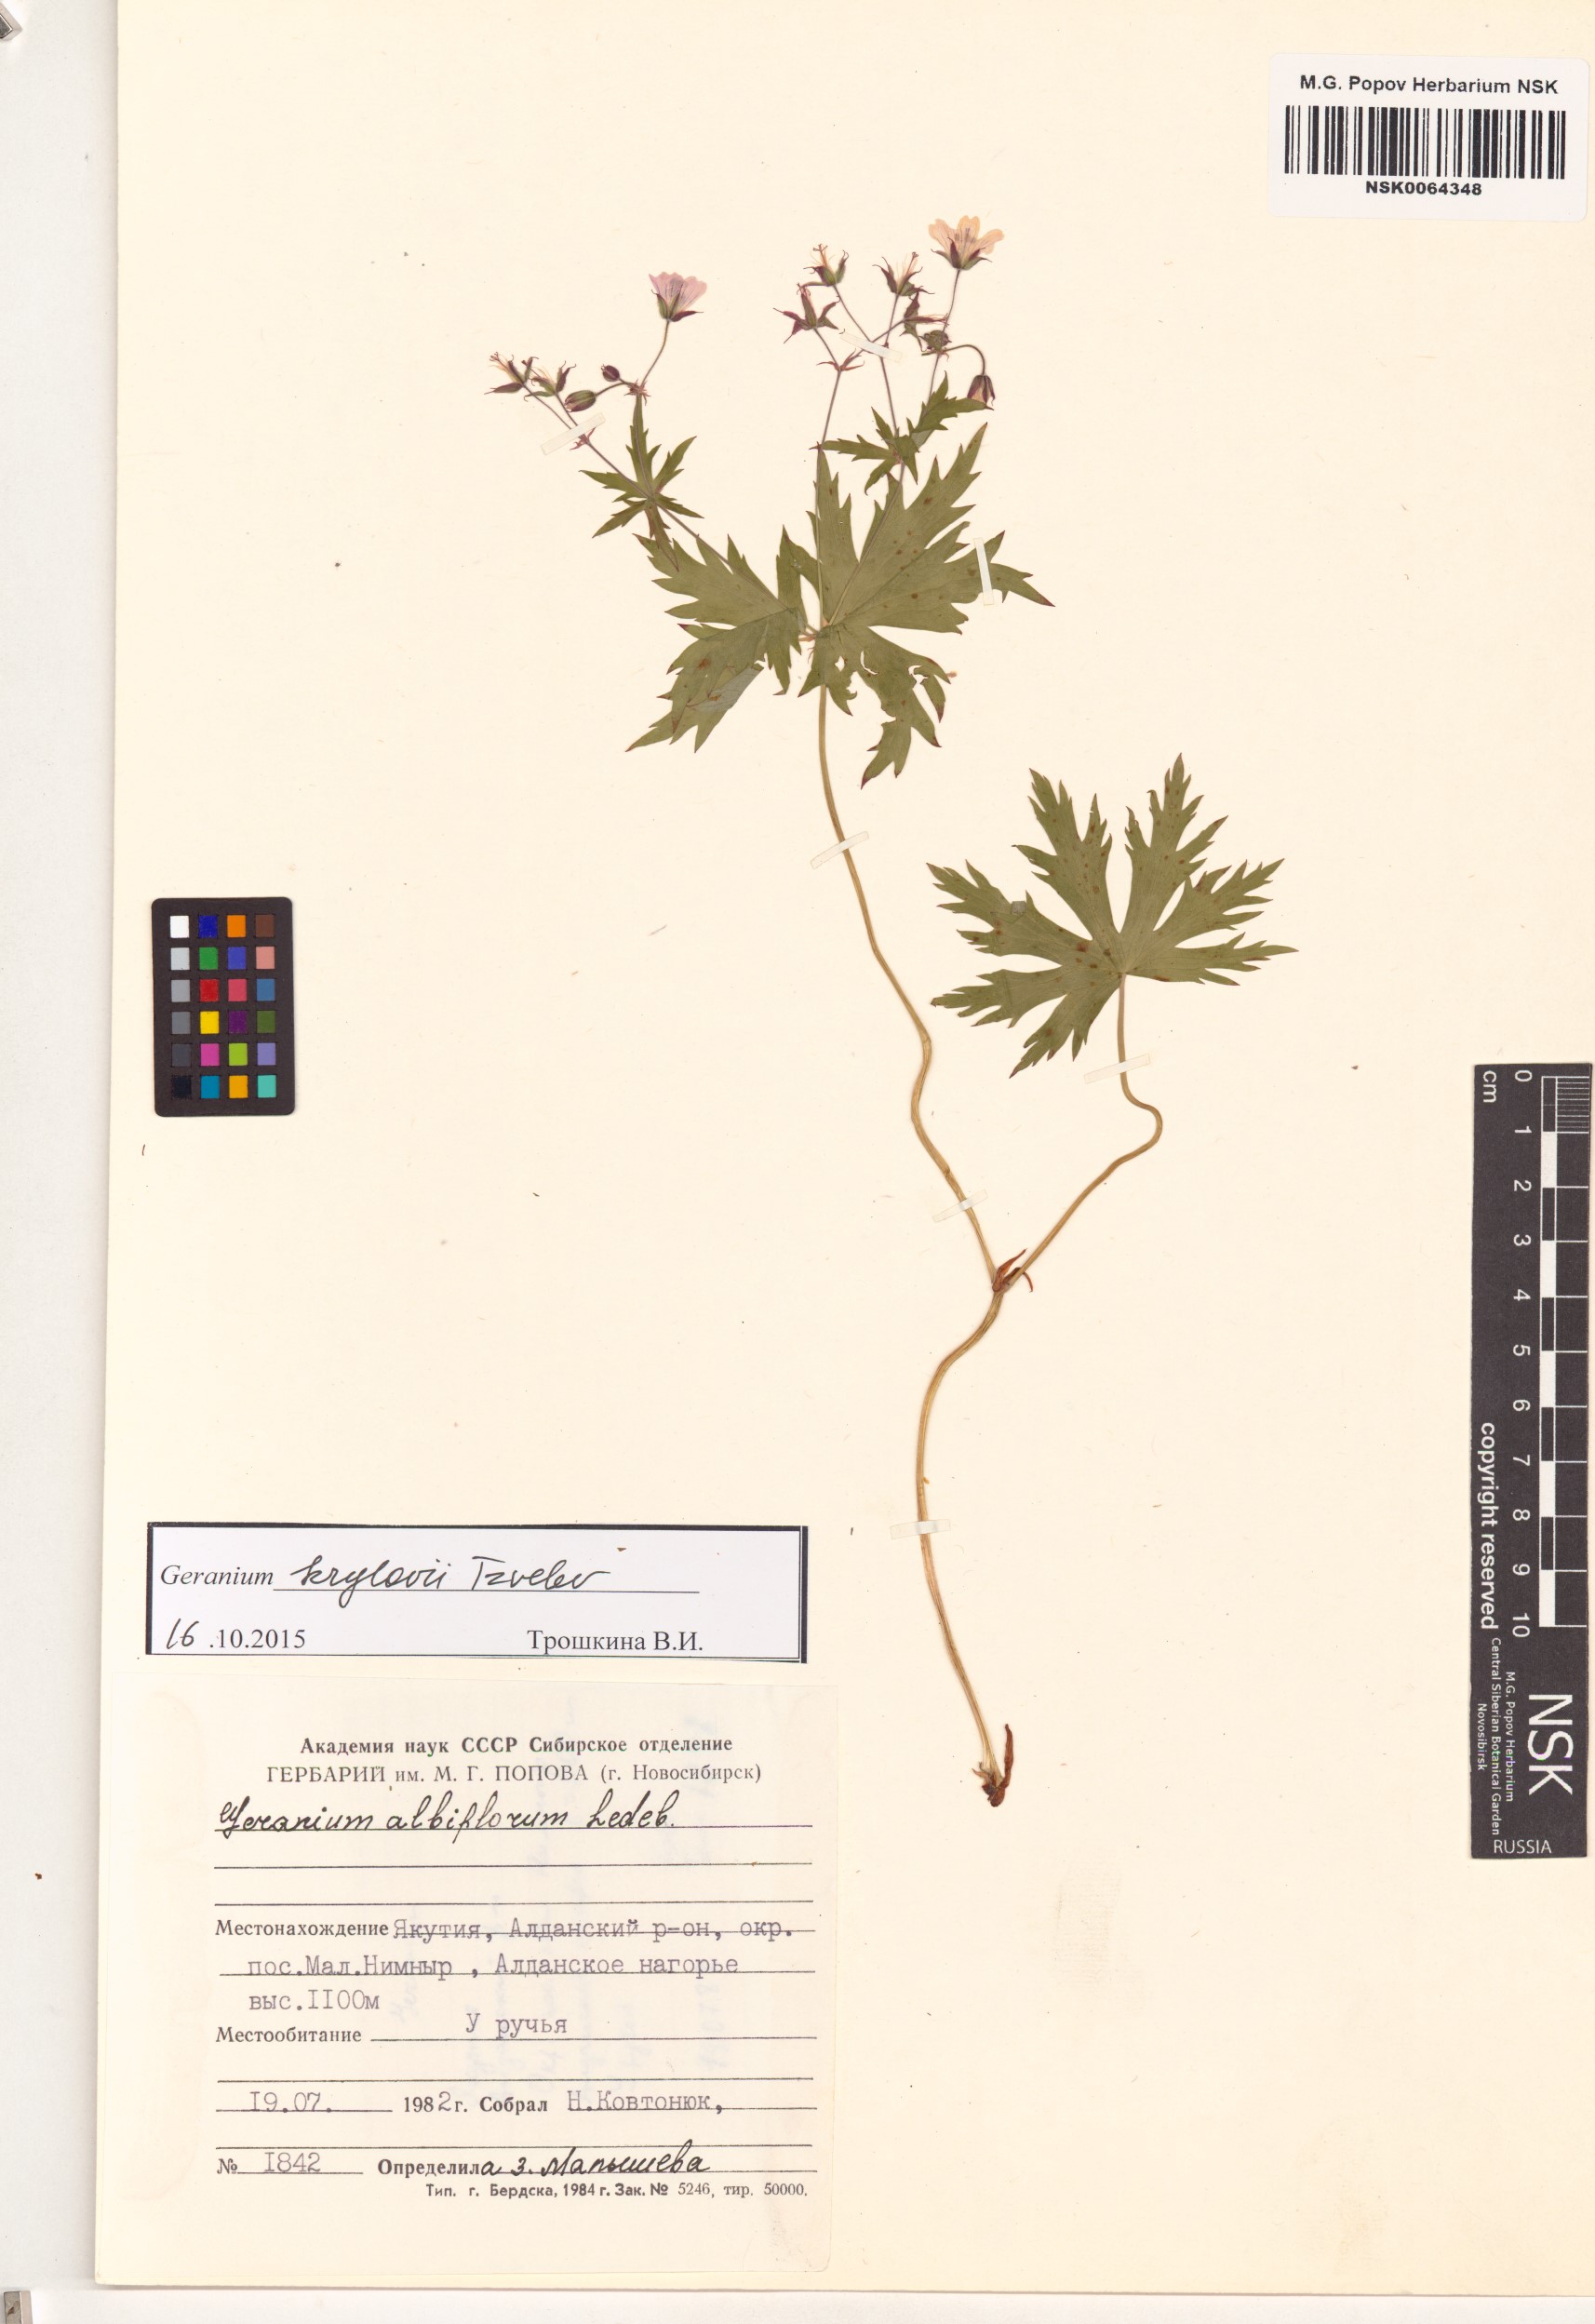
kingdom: Plantae
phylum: Tracheophyta
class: Magnoliopsida
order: Geraniales
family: Geraniaceae
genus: Geranium
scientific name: Geranium sylvaticum
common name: Wood crane's-bill
